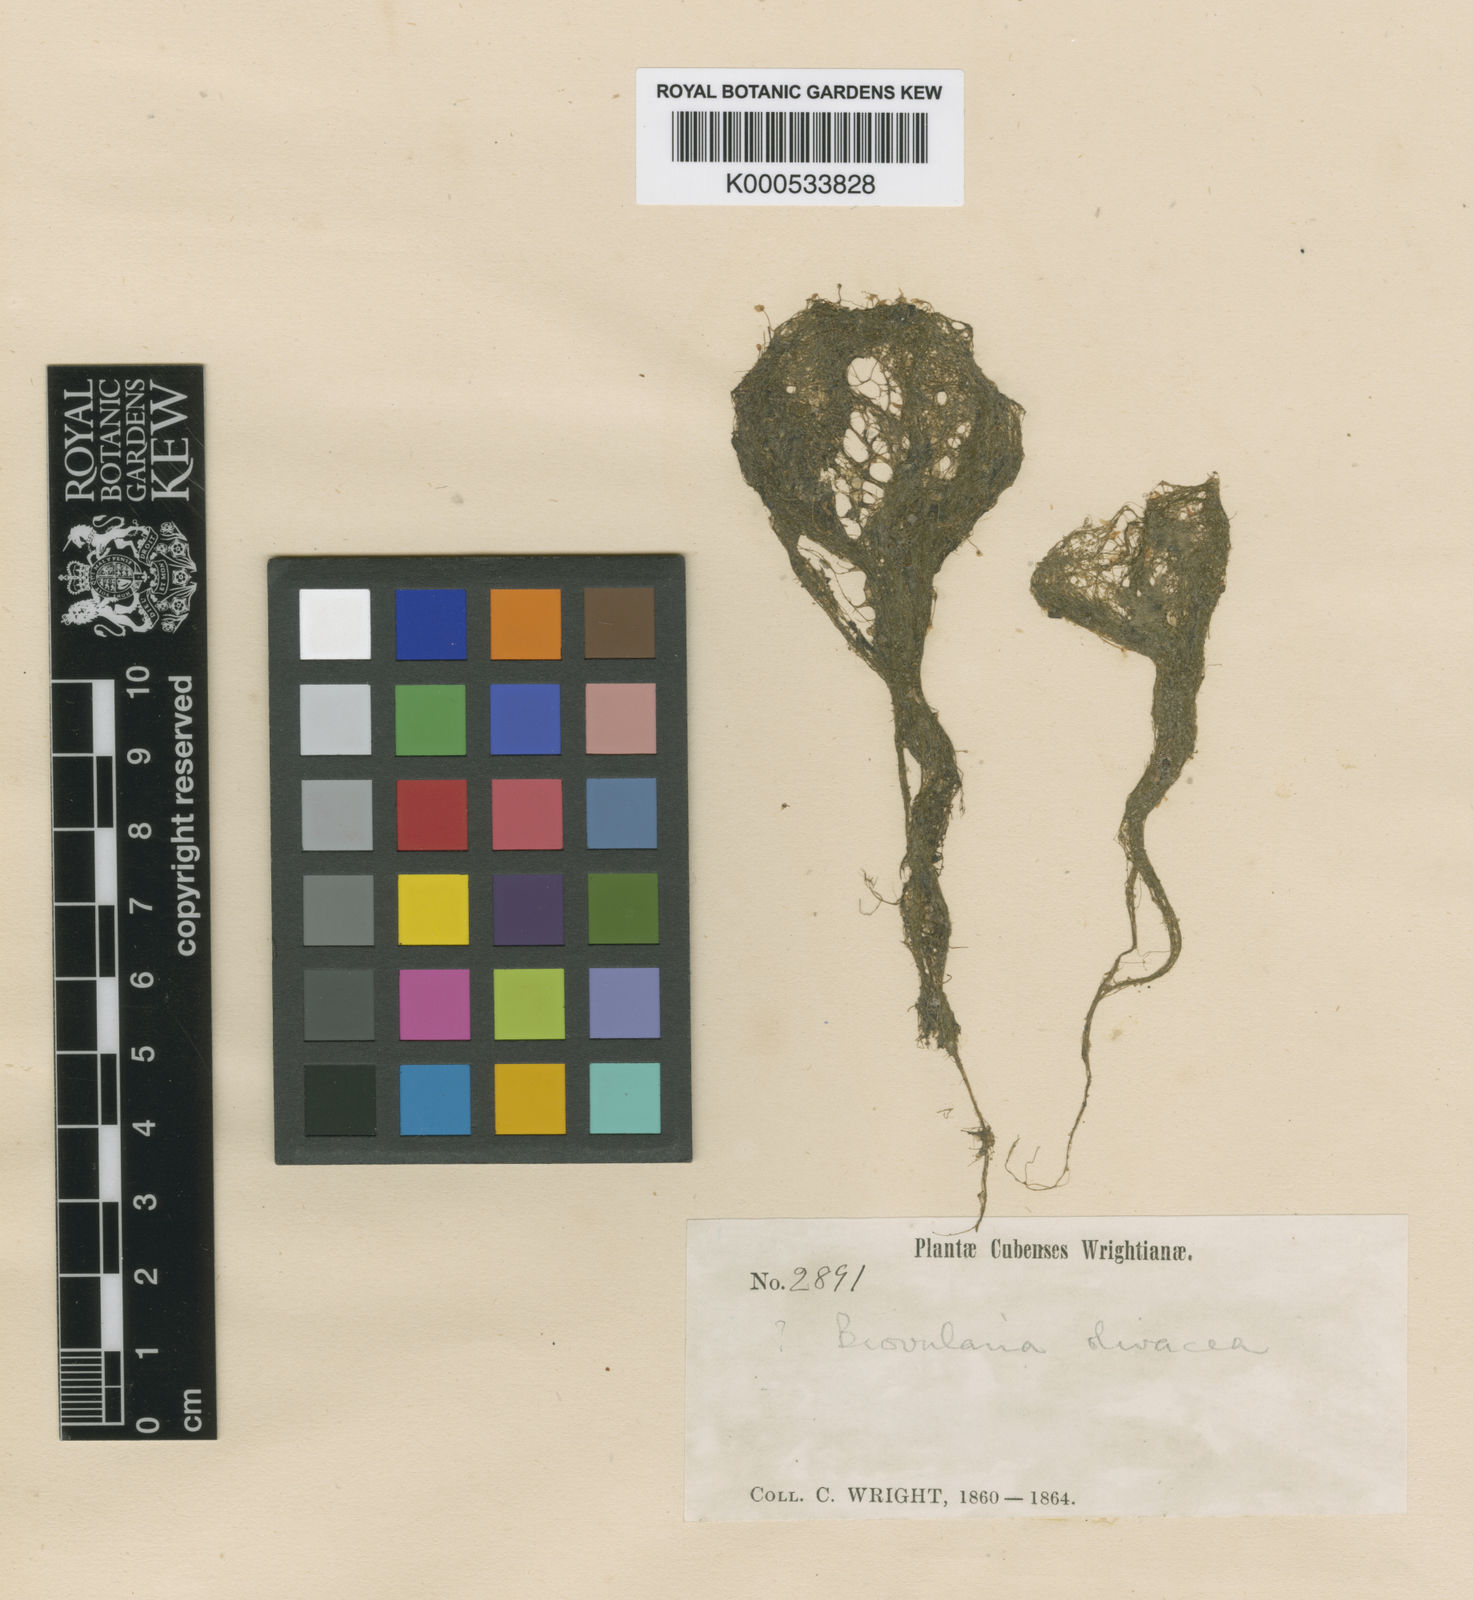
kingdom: Plantae
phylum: Tracheophyta
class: Magnoliopsida
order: Lamiales
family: Lentibulariaceae
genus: Utricularia
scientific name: Utricularia olivacea
